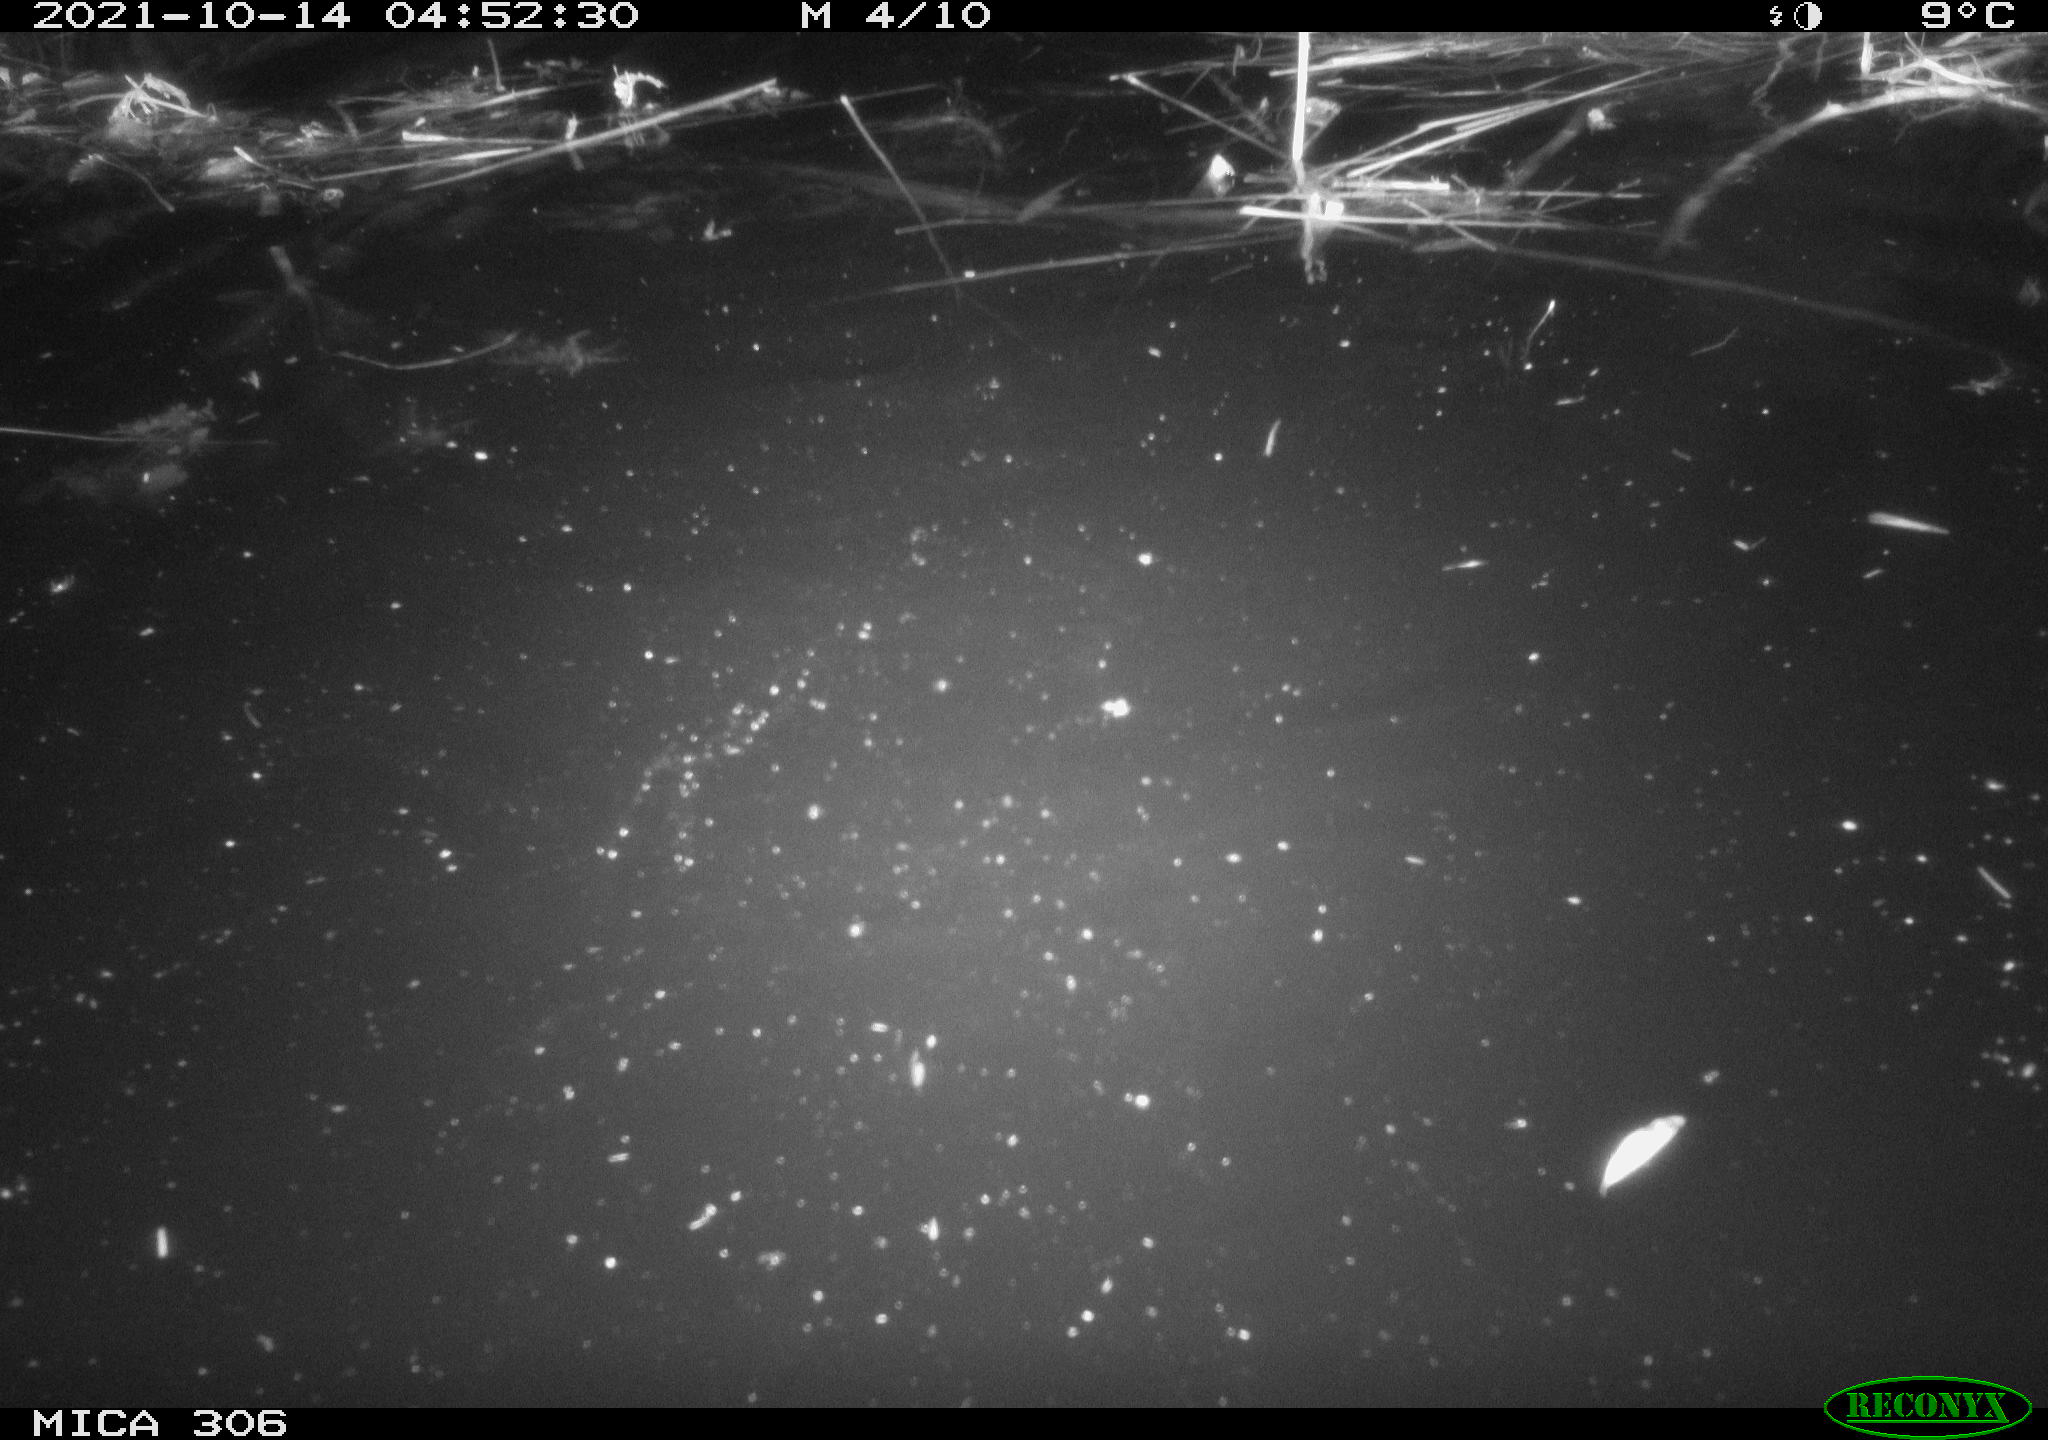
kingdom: Animalia
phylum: Chordata
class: Mammalia
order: Rodentia
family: Cricetidae
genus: Ondatra
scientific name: Ondatra zibethicus
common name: Muskrat
